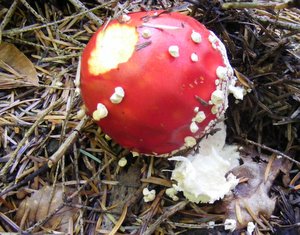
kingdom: Fungi
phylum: Basidiomycota
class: Agaricomycetes
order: Agaricales
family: Amanitaceae
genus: Amanita
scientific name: Amanita muscaria
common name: rød fluesvamp
